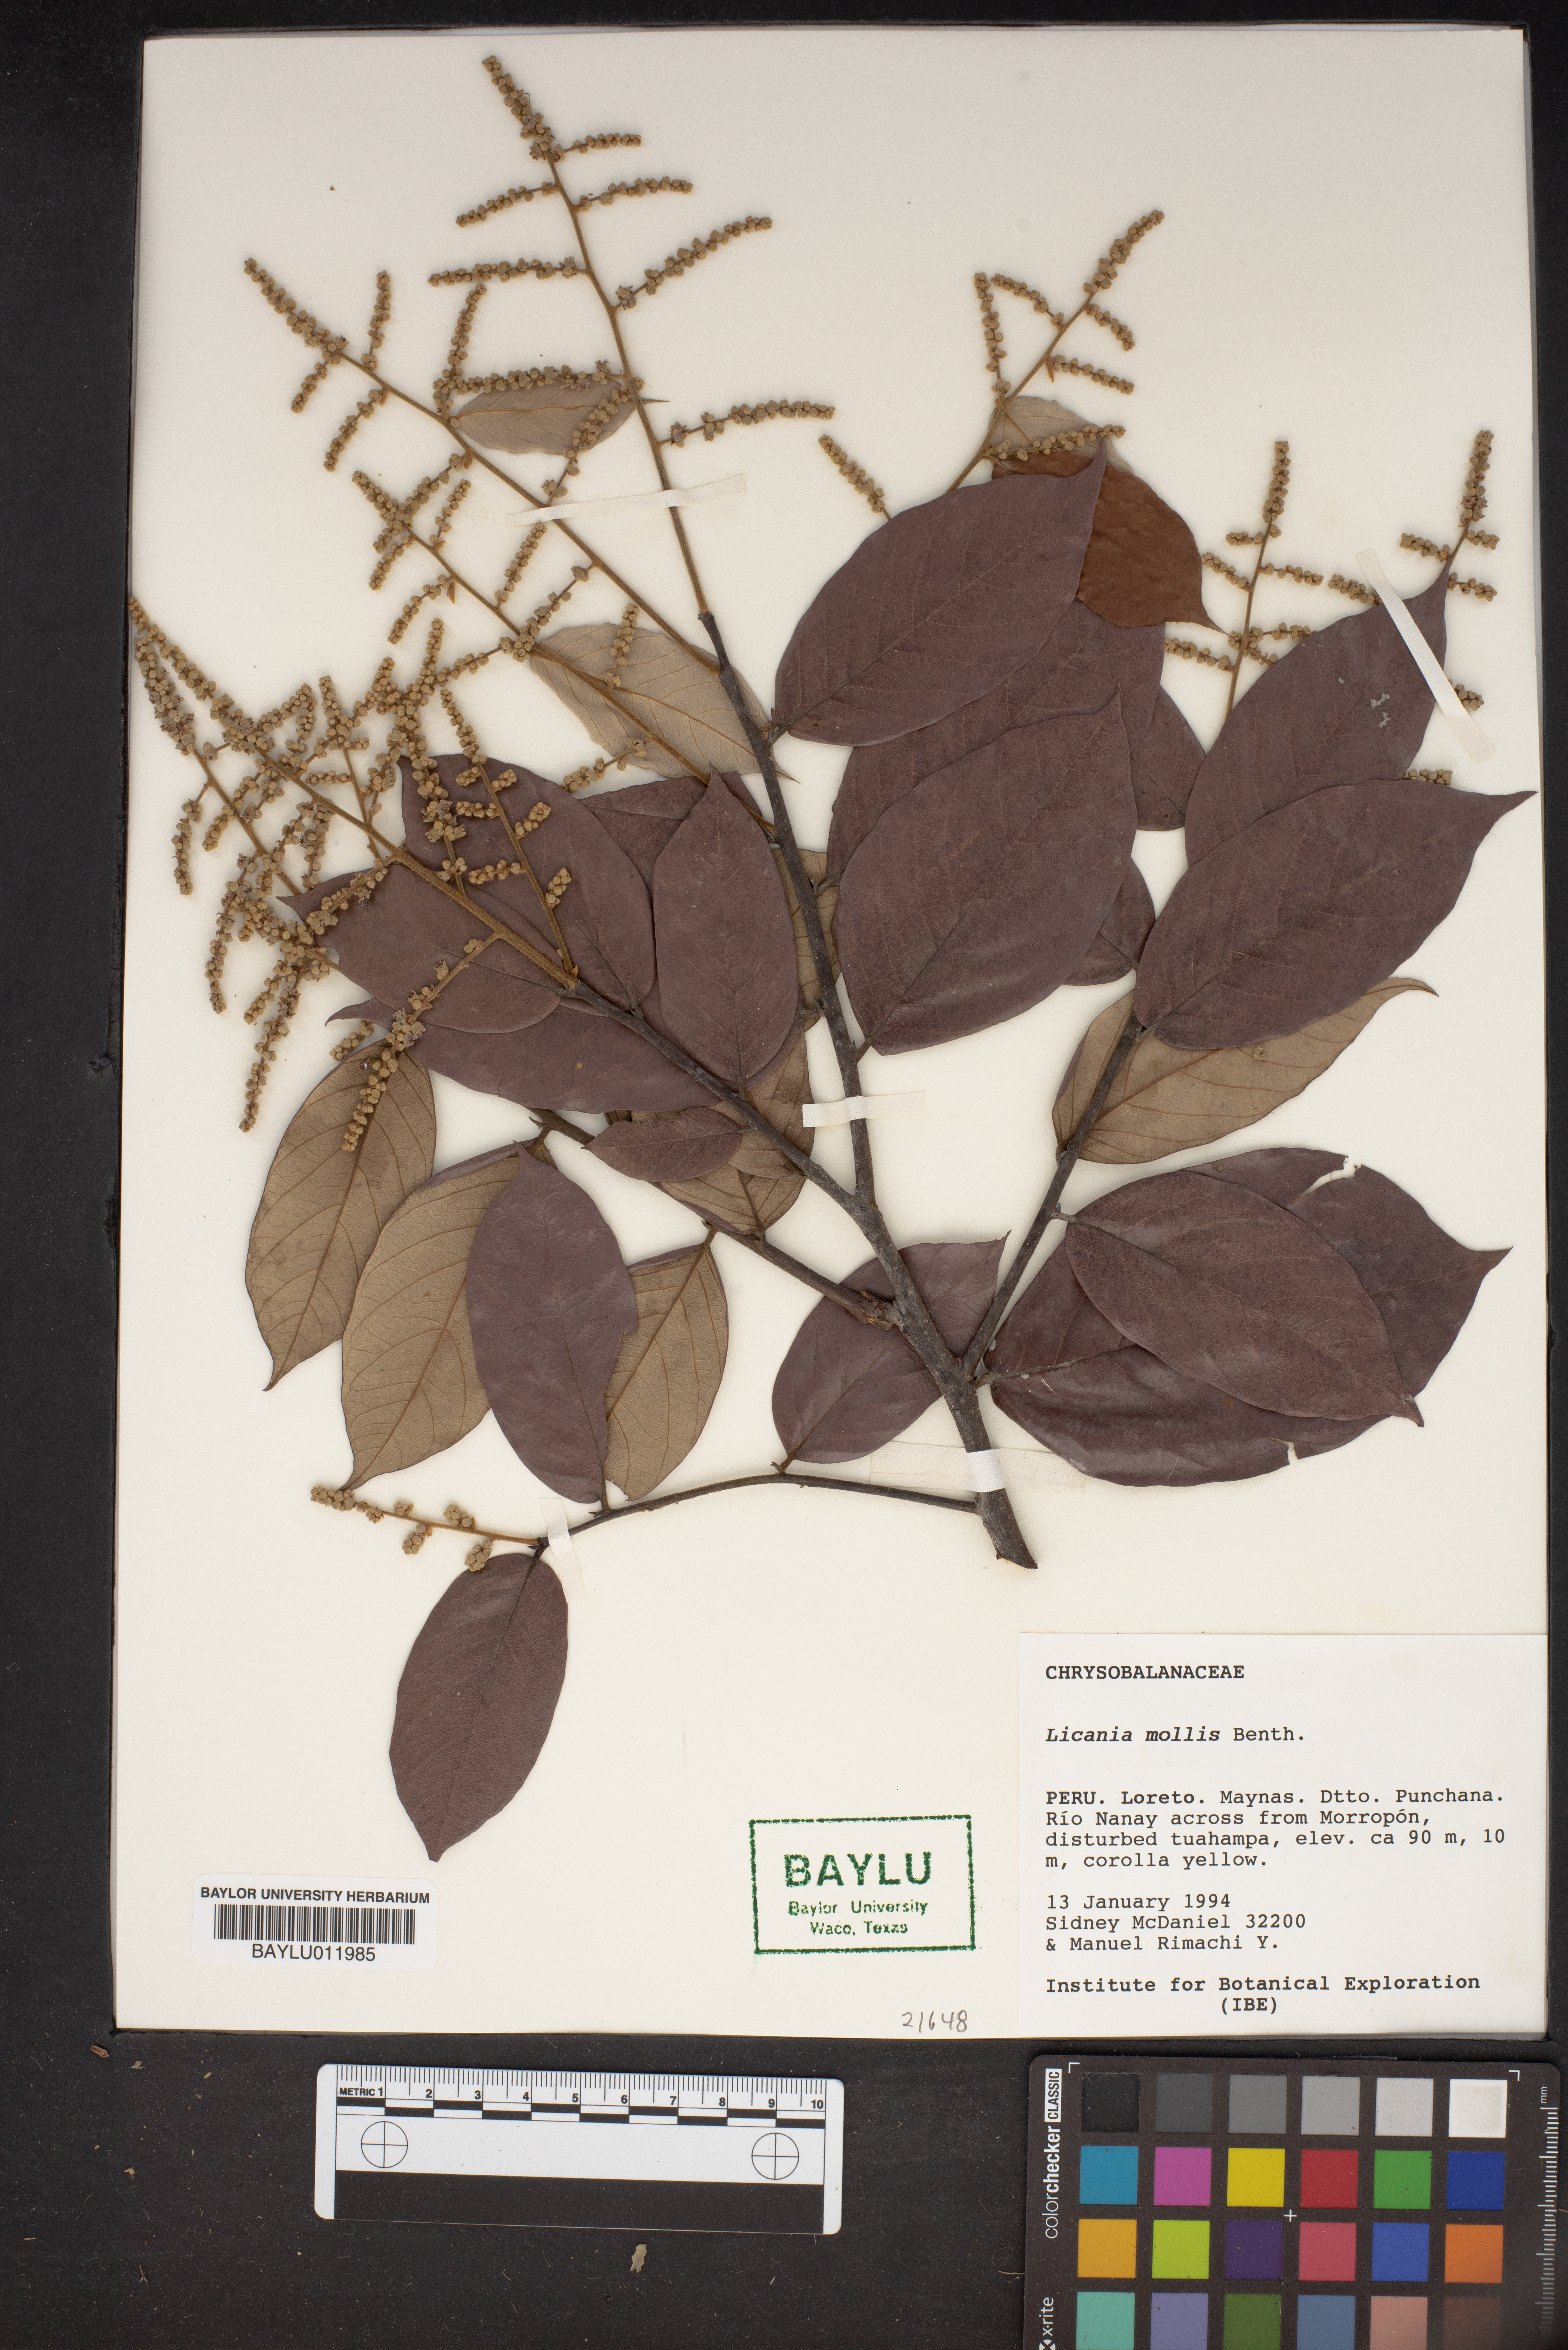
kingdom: Plantae
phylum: Tracheophyta
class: Magnoliopsida
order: Malpighiales
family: Chrysobalanaceae
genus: Licania
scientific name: Licania mollis
